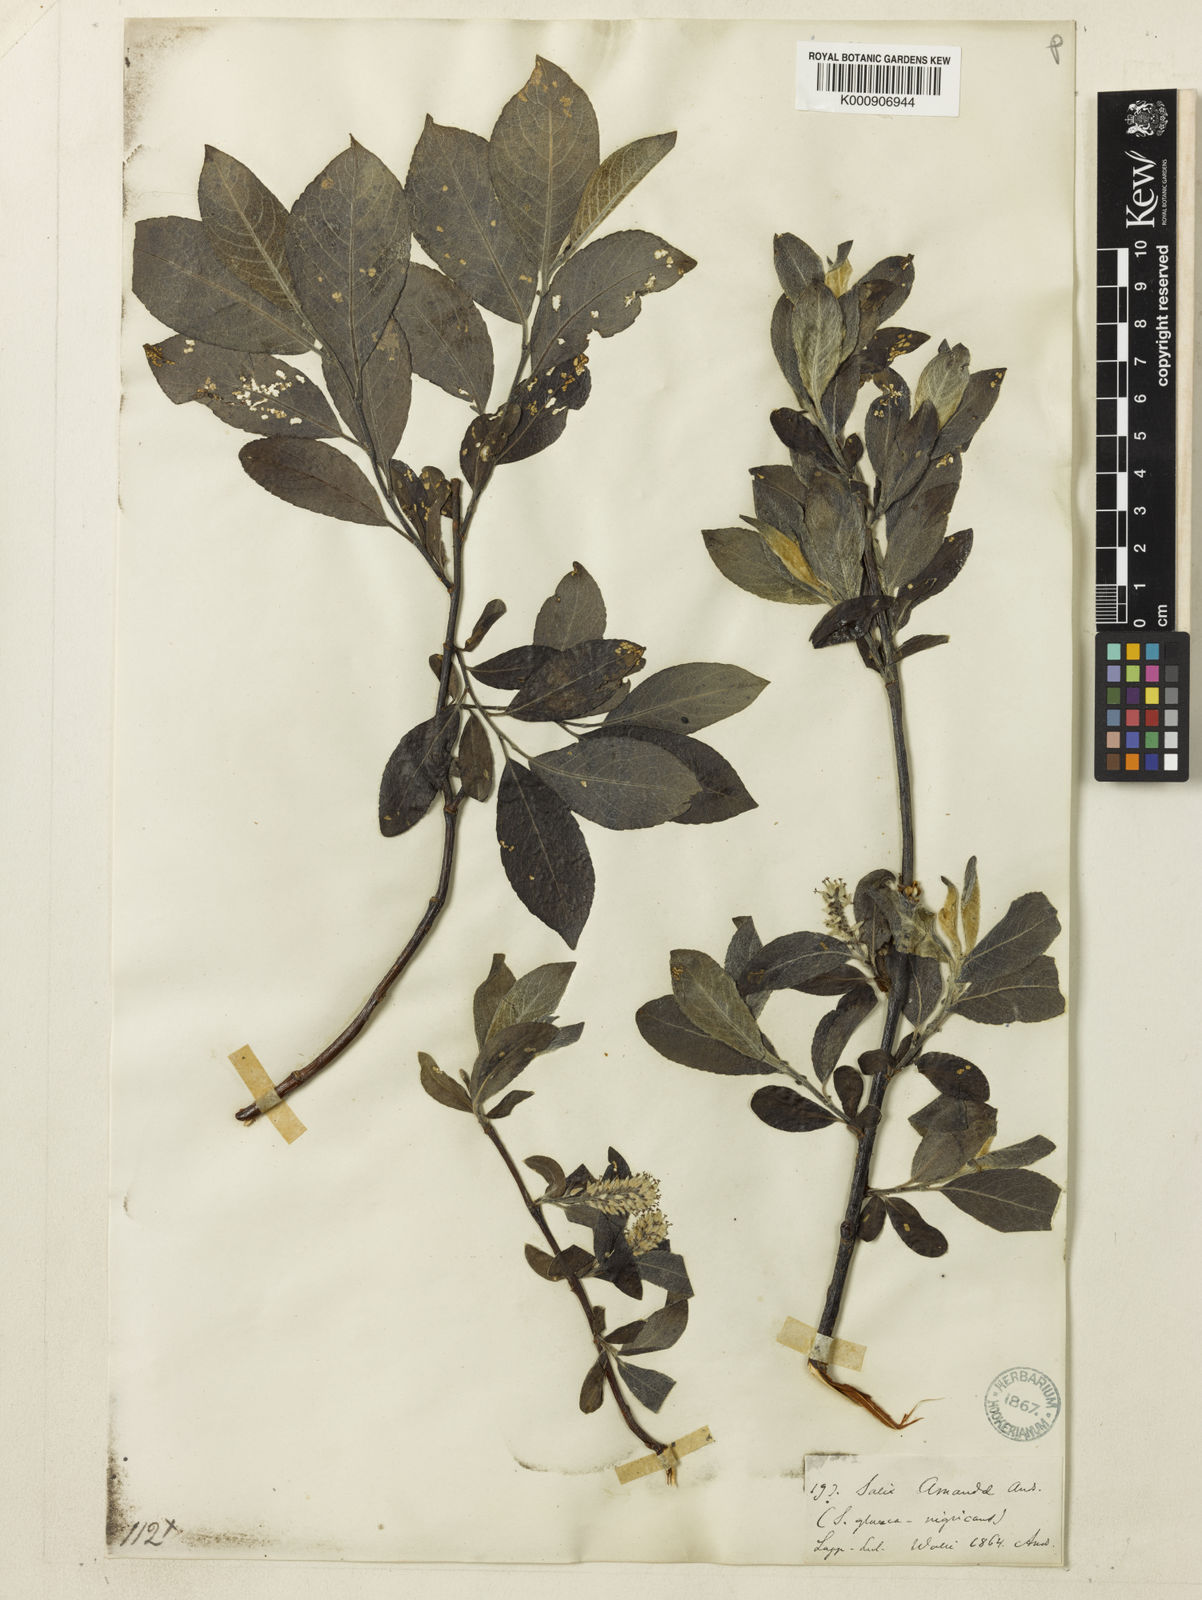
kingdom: Plantae
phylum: Tracheophyta
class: Magnoliopsida
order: Malpighiales
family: Salicaceae
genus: Salix
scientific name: Salix glauca
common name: Glaucous willow
